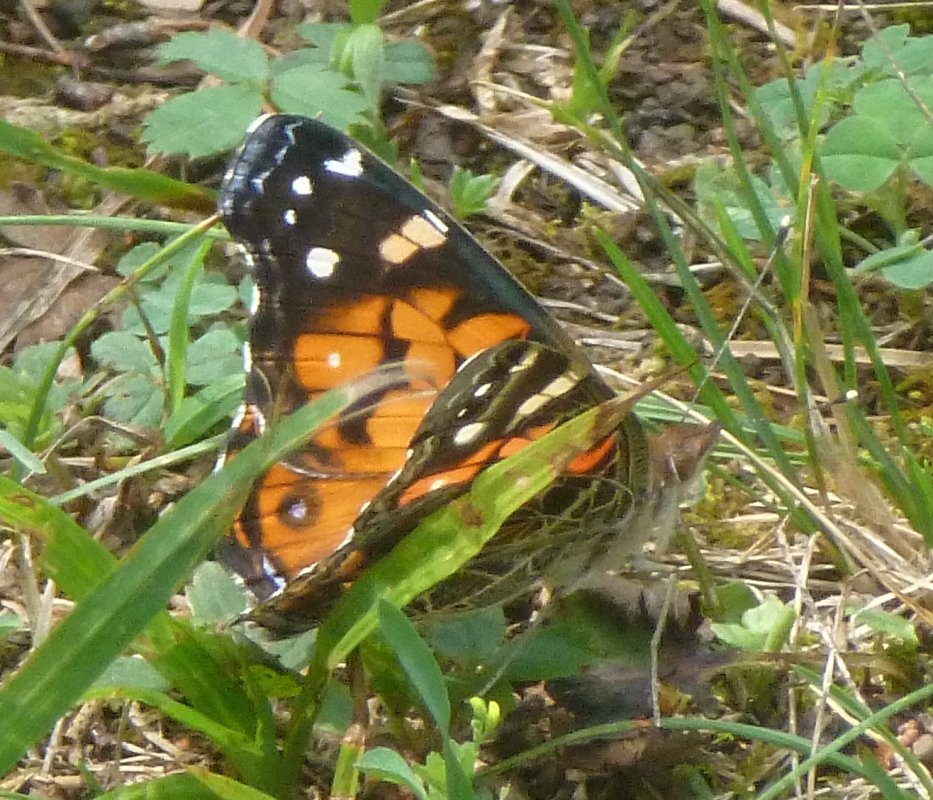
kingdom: Animalia
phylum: Arthropoda
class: Insecta
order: Lepidoptera
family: Nymphalidae
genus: Vanessa
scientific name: Vanessa cardui
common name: Painted Lady
